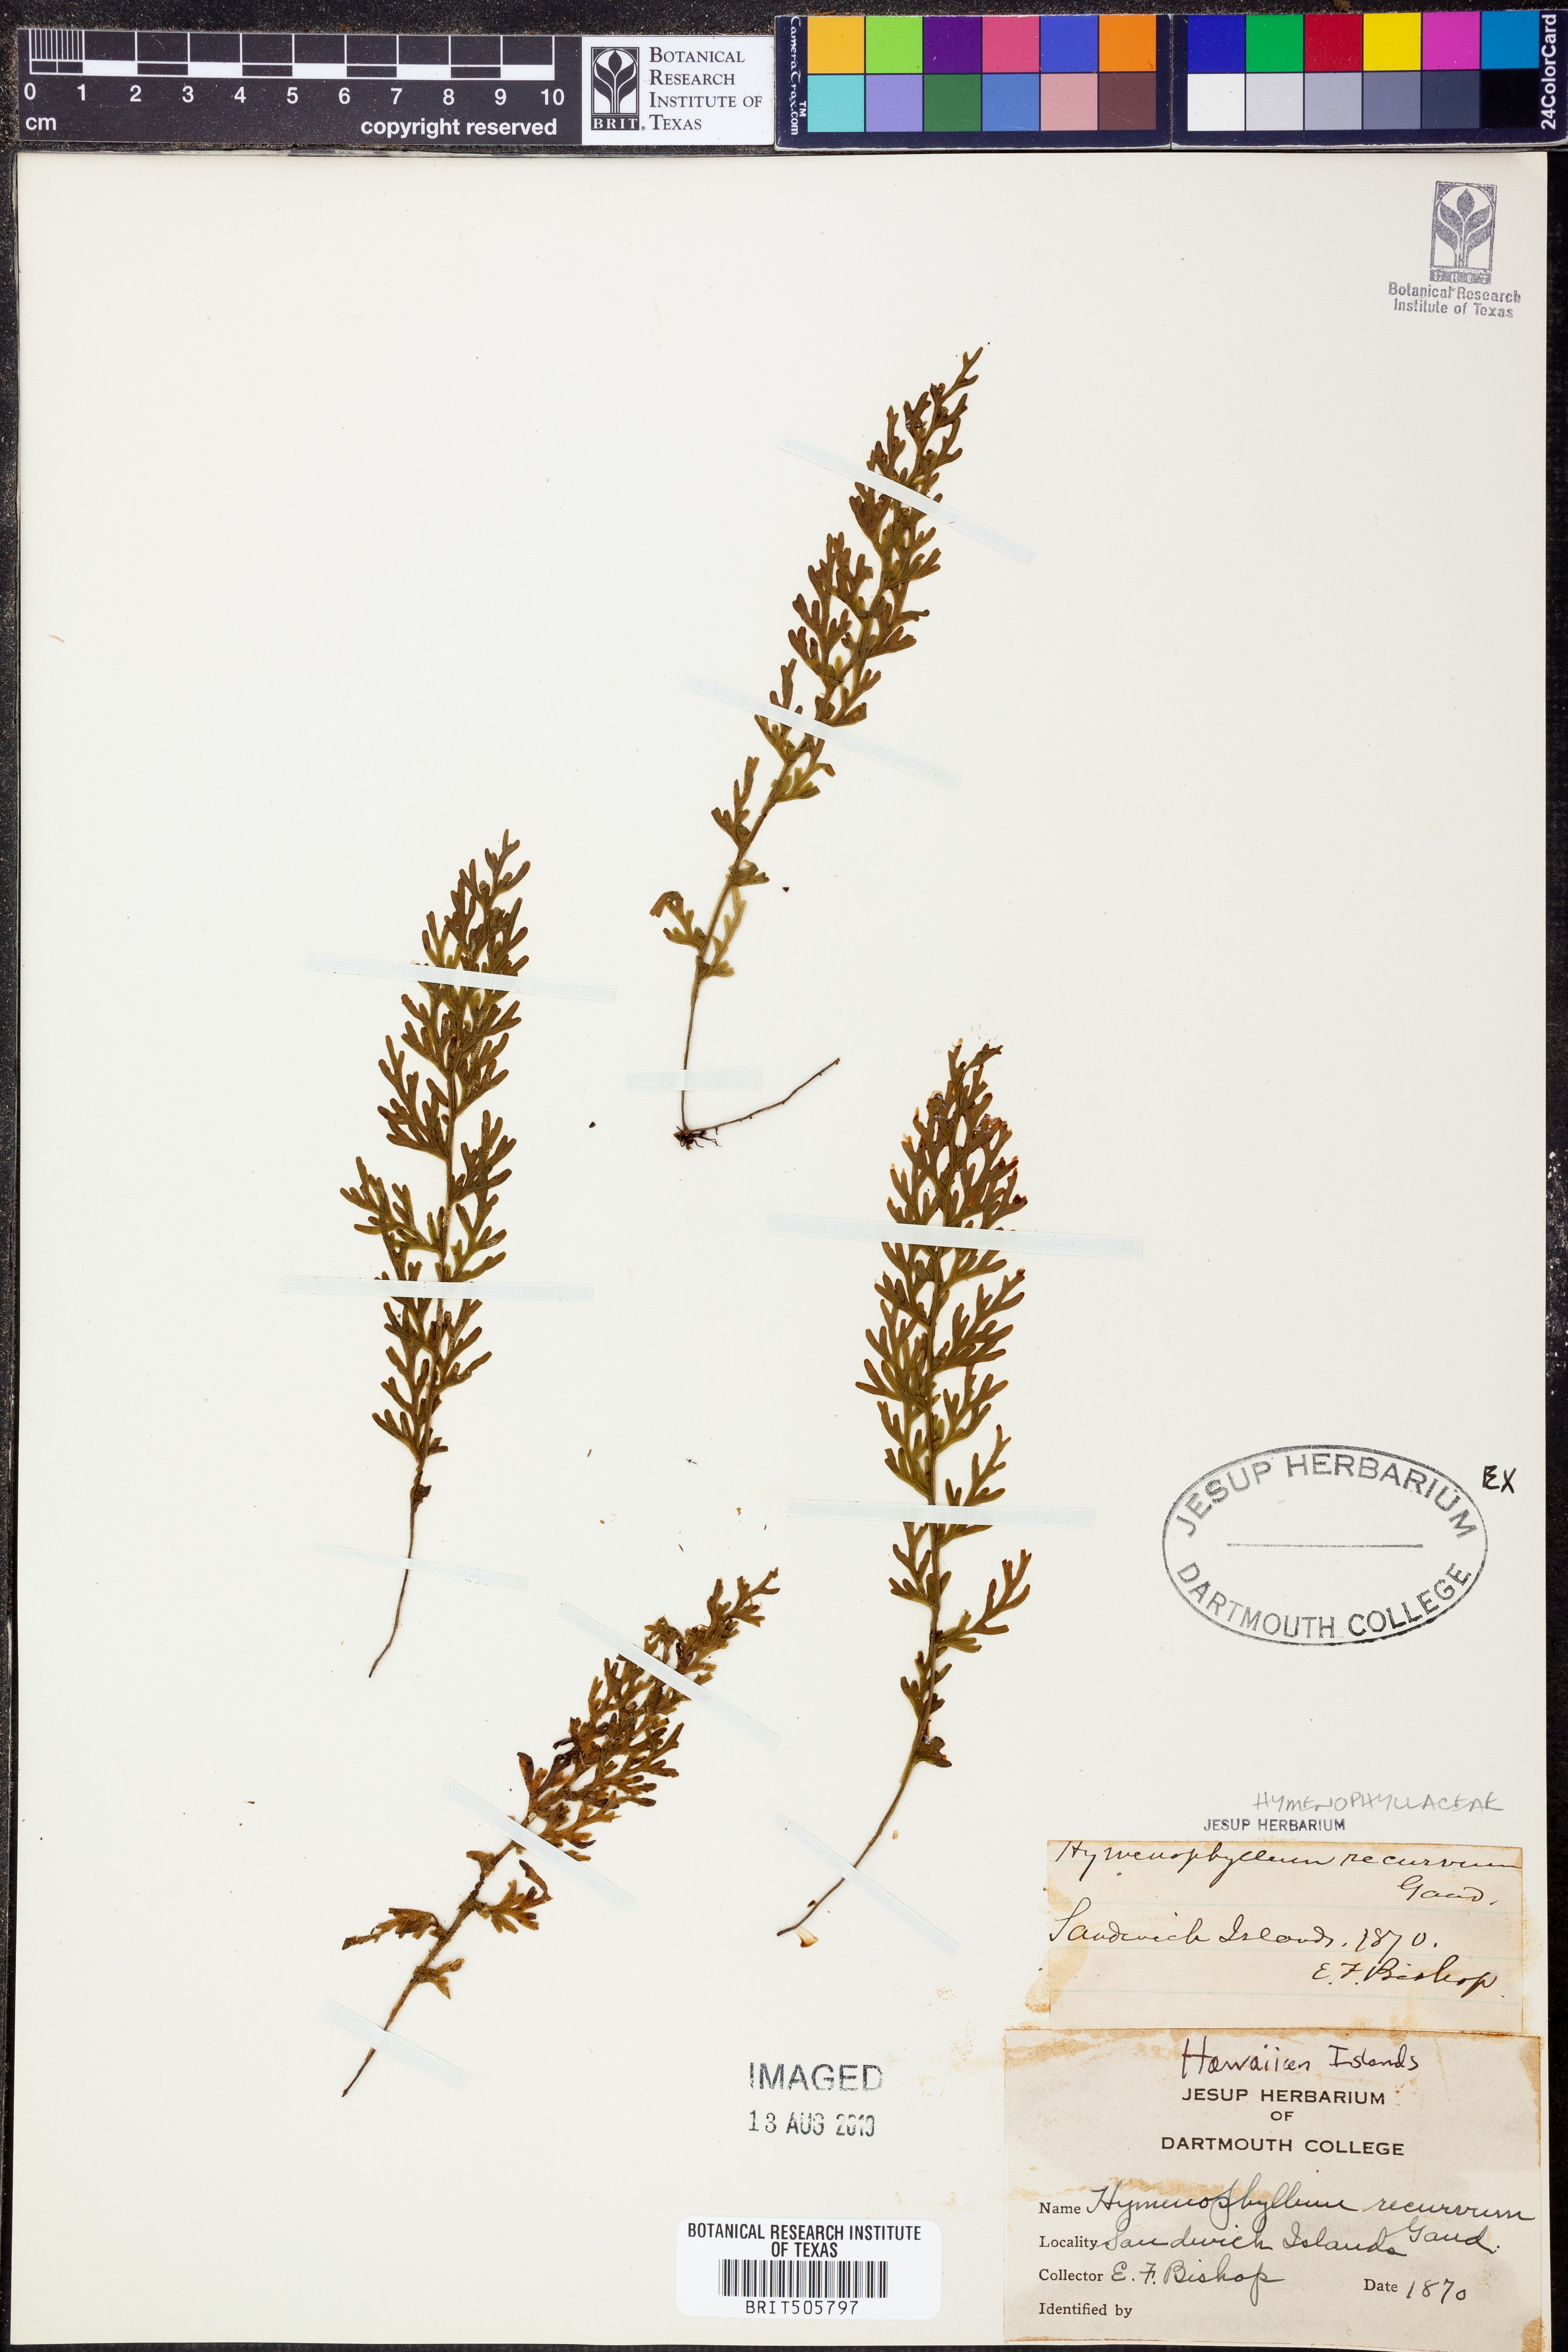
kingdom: Plantae
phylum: Tracheophyta
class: Polypodiopsida
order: Hymenophyllales
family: Hymenophyllaceae
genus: Hymenophyllum
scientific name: Hymenophyllum recurvum
